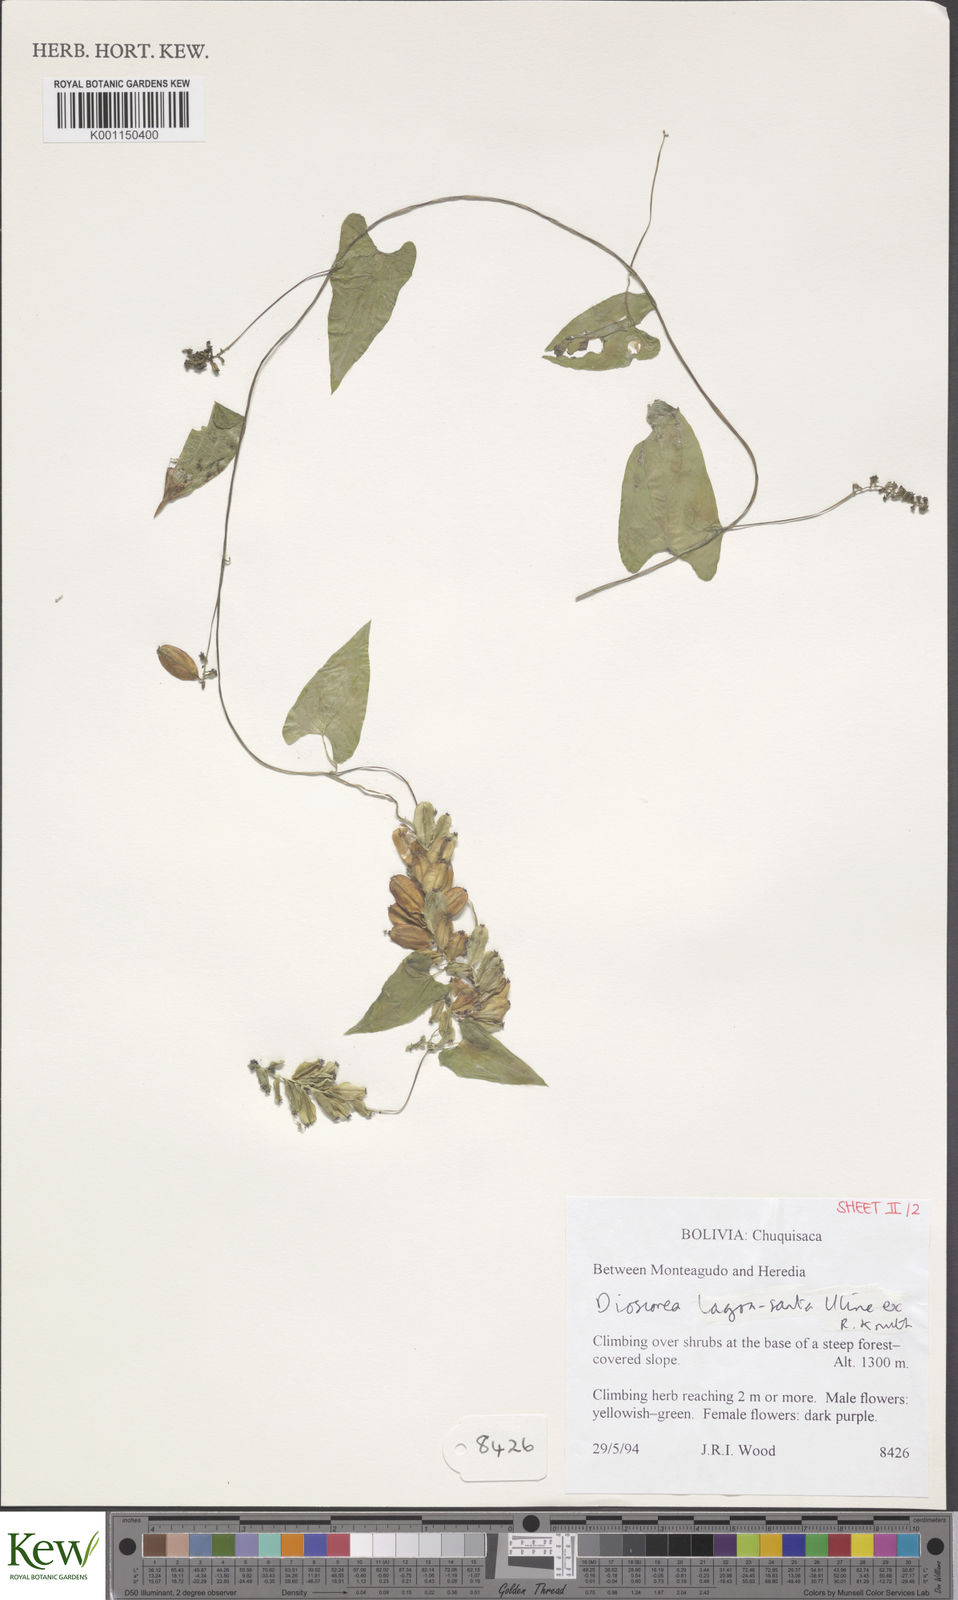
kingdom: Plantae
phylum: Tracheophyta
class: Liliopsida
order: Dioscoreales
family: Dioscoreaceae
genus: Dioscorea
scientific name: Dioscorea subhastata
